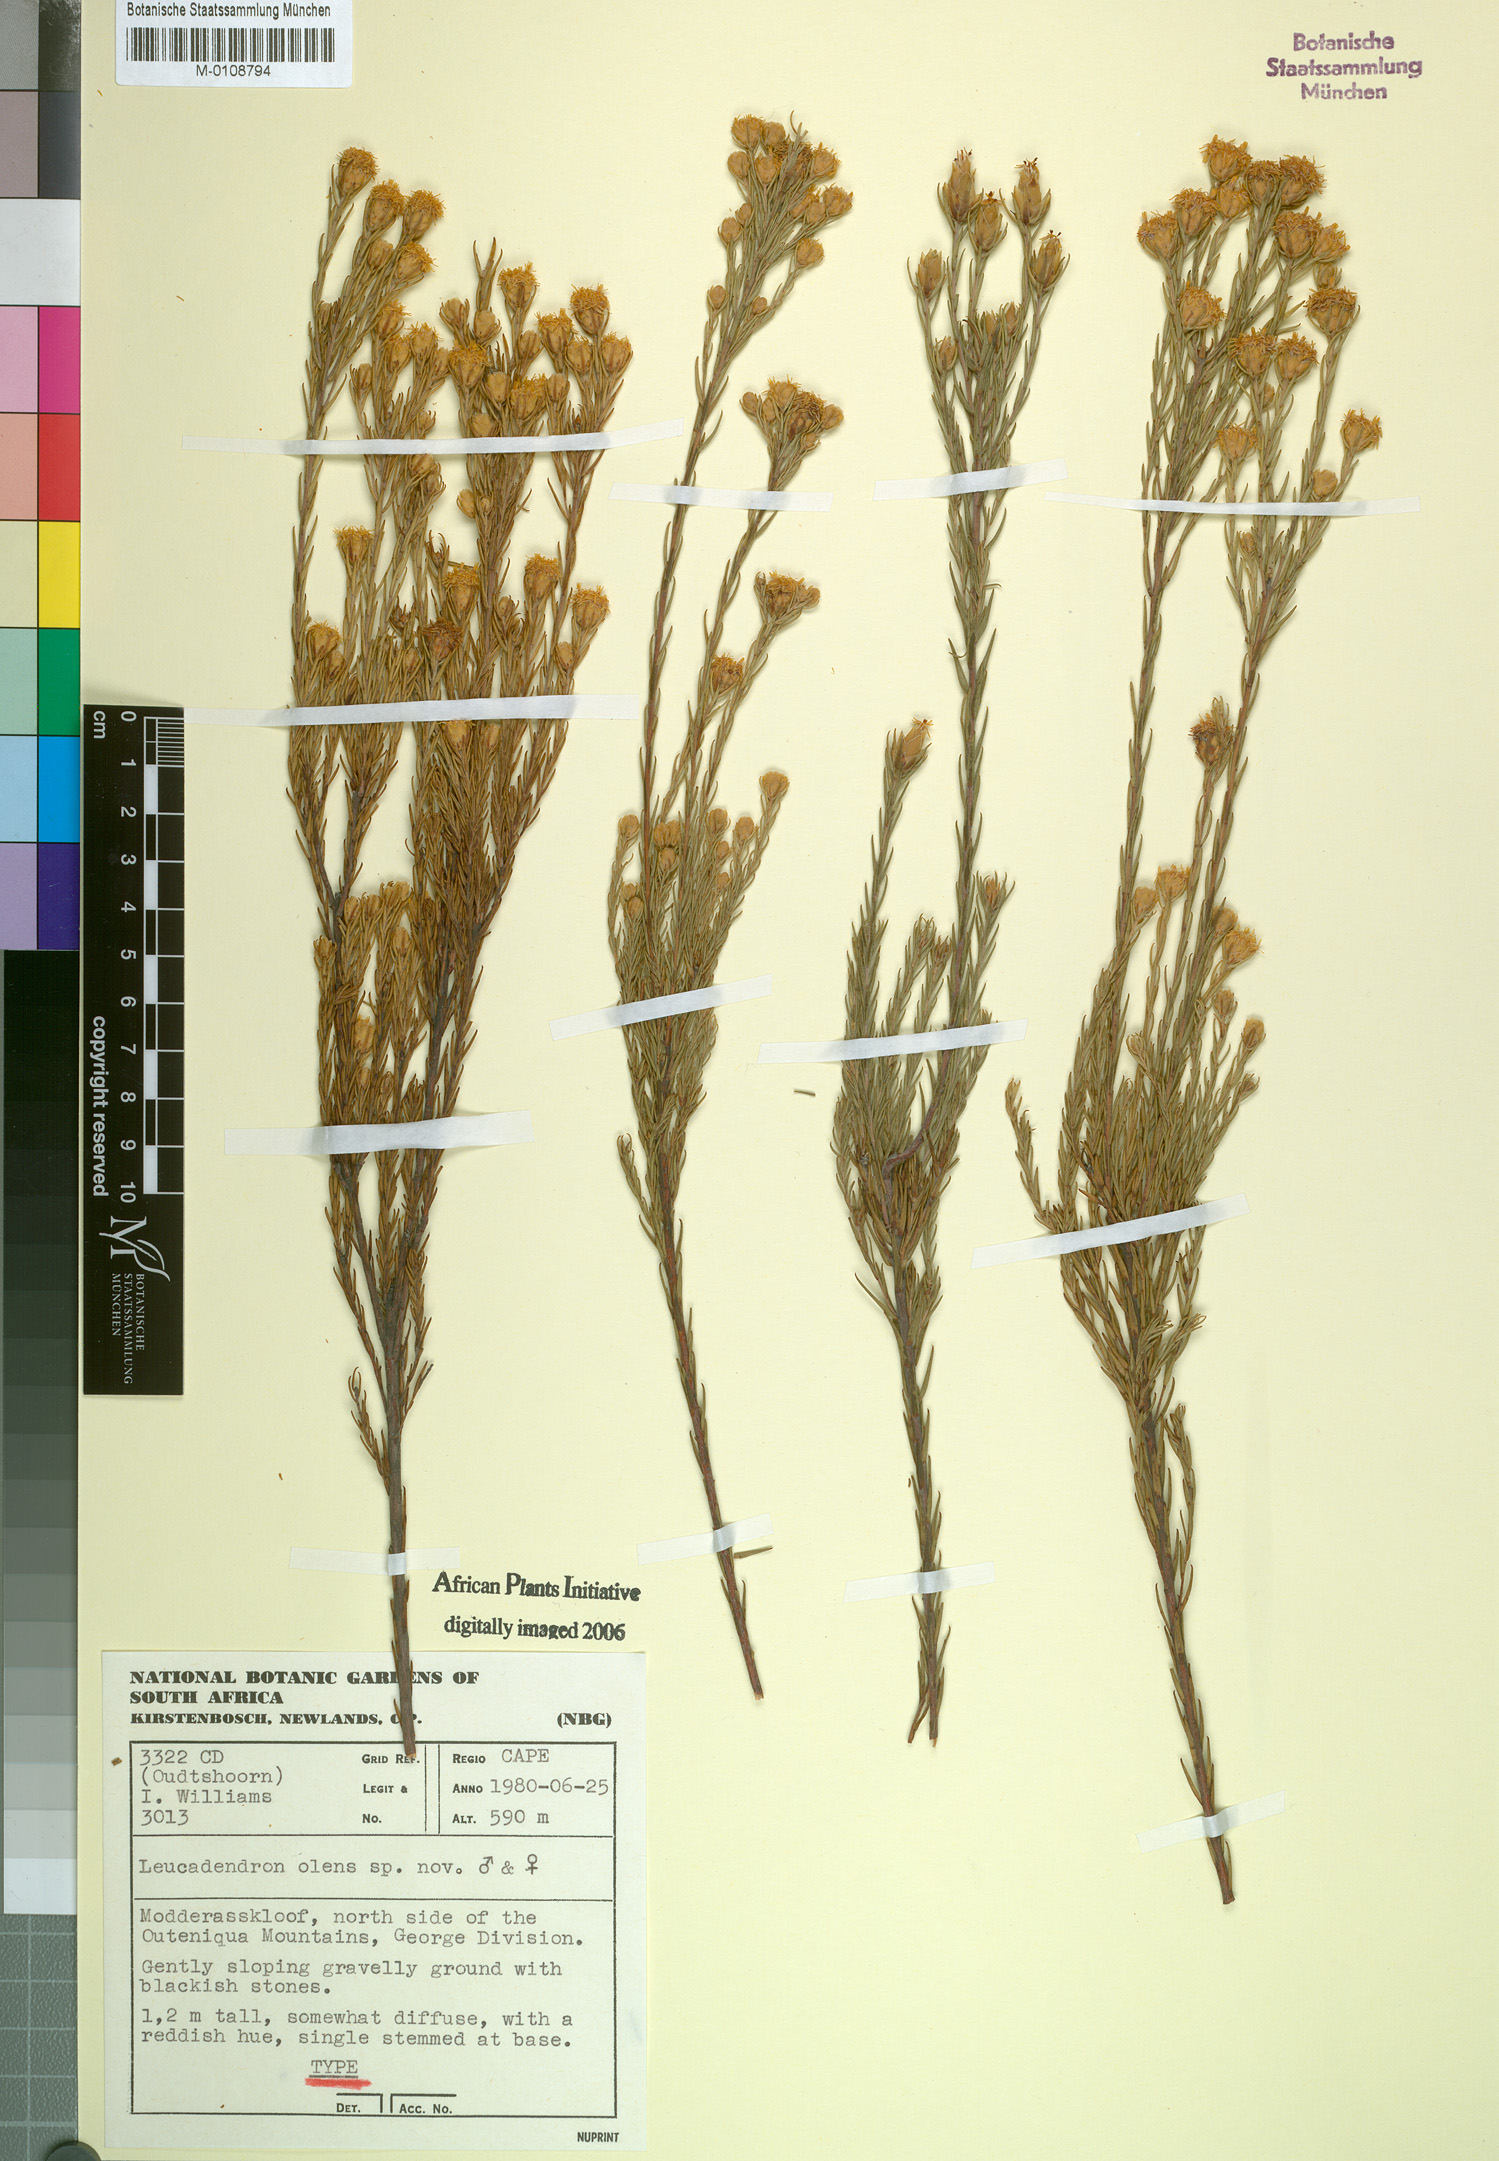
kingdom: Plantae
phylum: Tracheophyta
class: Magnoliopsida
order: Proteales
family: Proteaceae
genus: Leucadendron
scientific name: Leucadendron olens
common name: Yellow conebush
